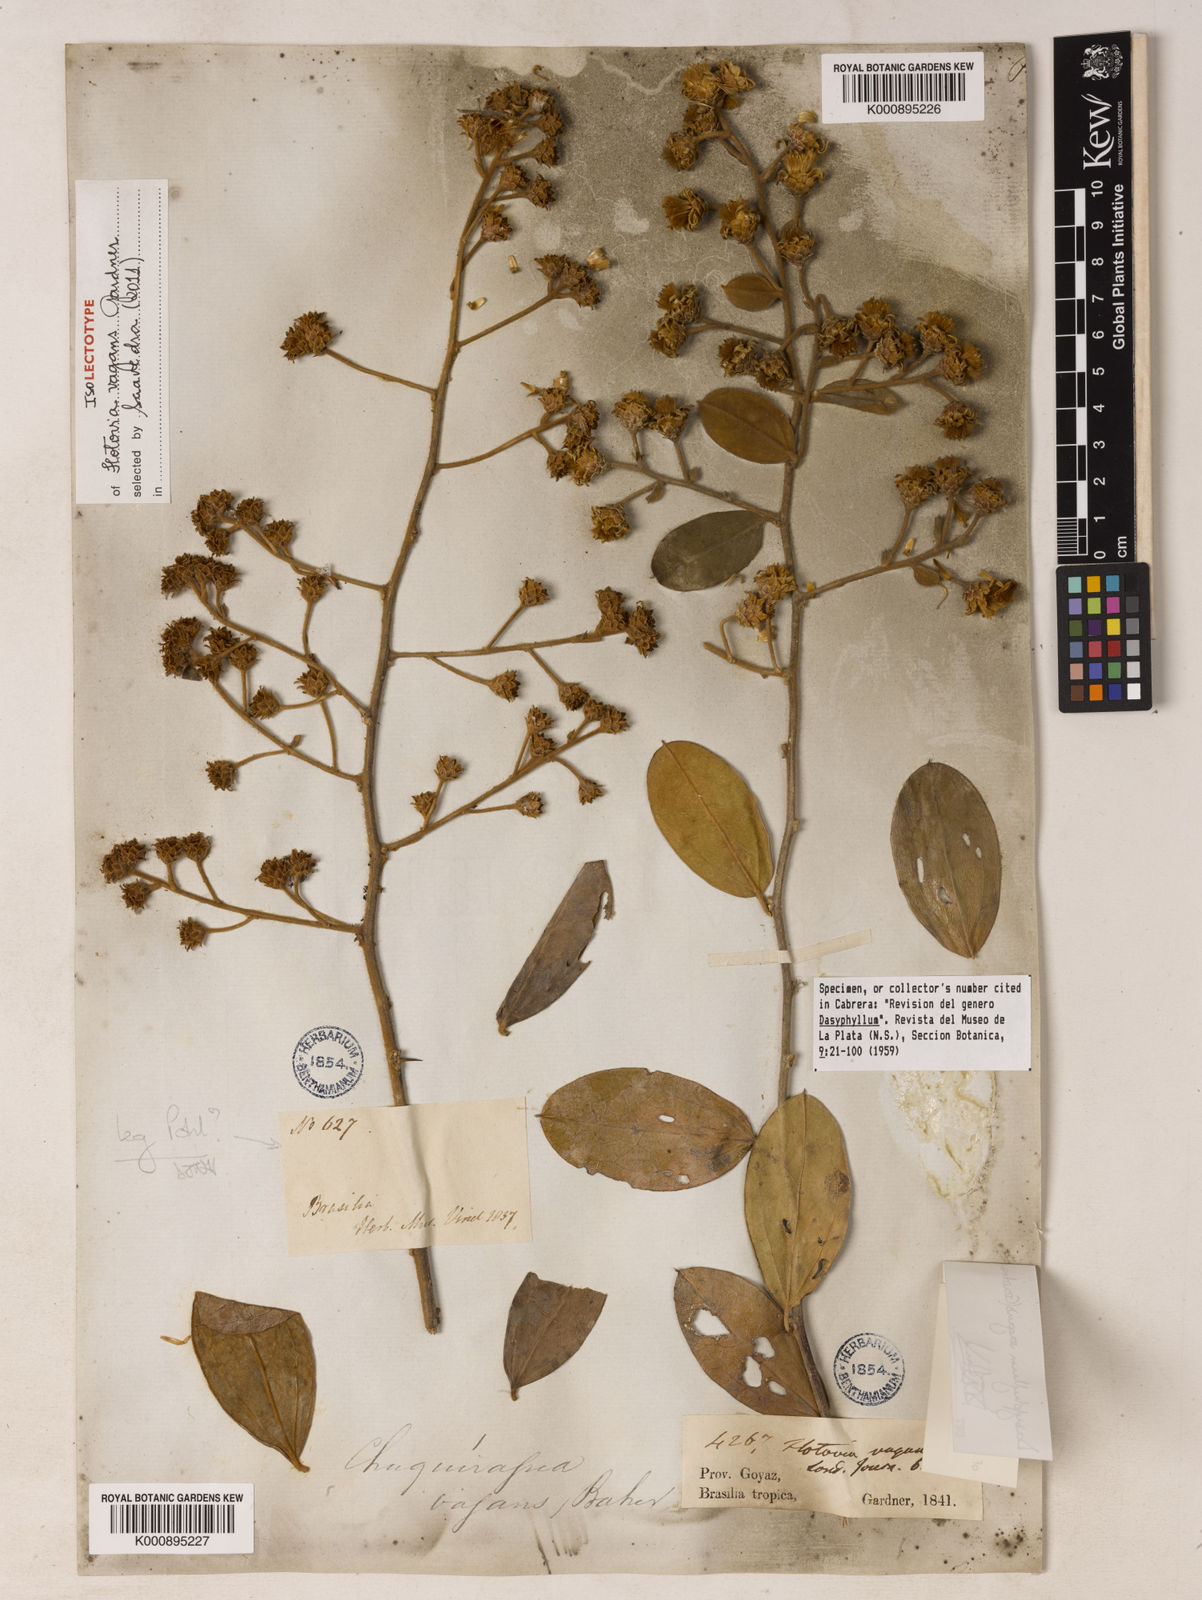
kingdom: Plantae
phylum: Tracheophyta
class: Magnoliopsida
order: Asterales
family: Asteraceae
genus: Dasyphyllum
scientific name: Dasyphyllum vagans
